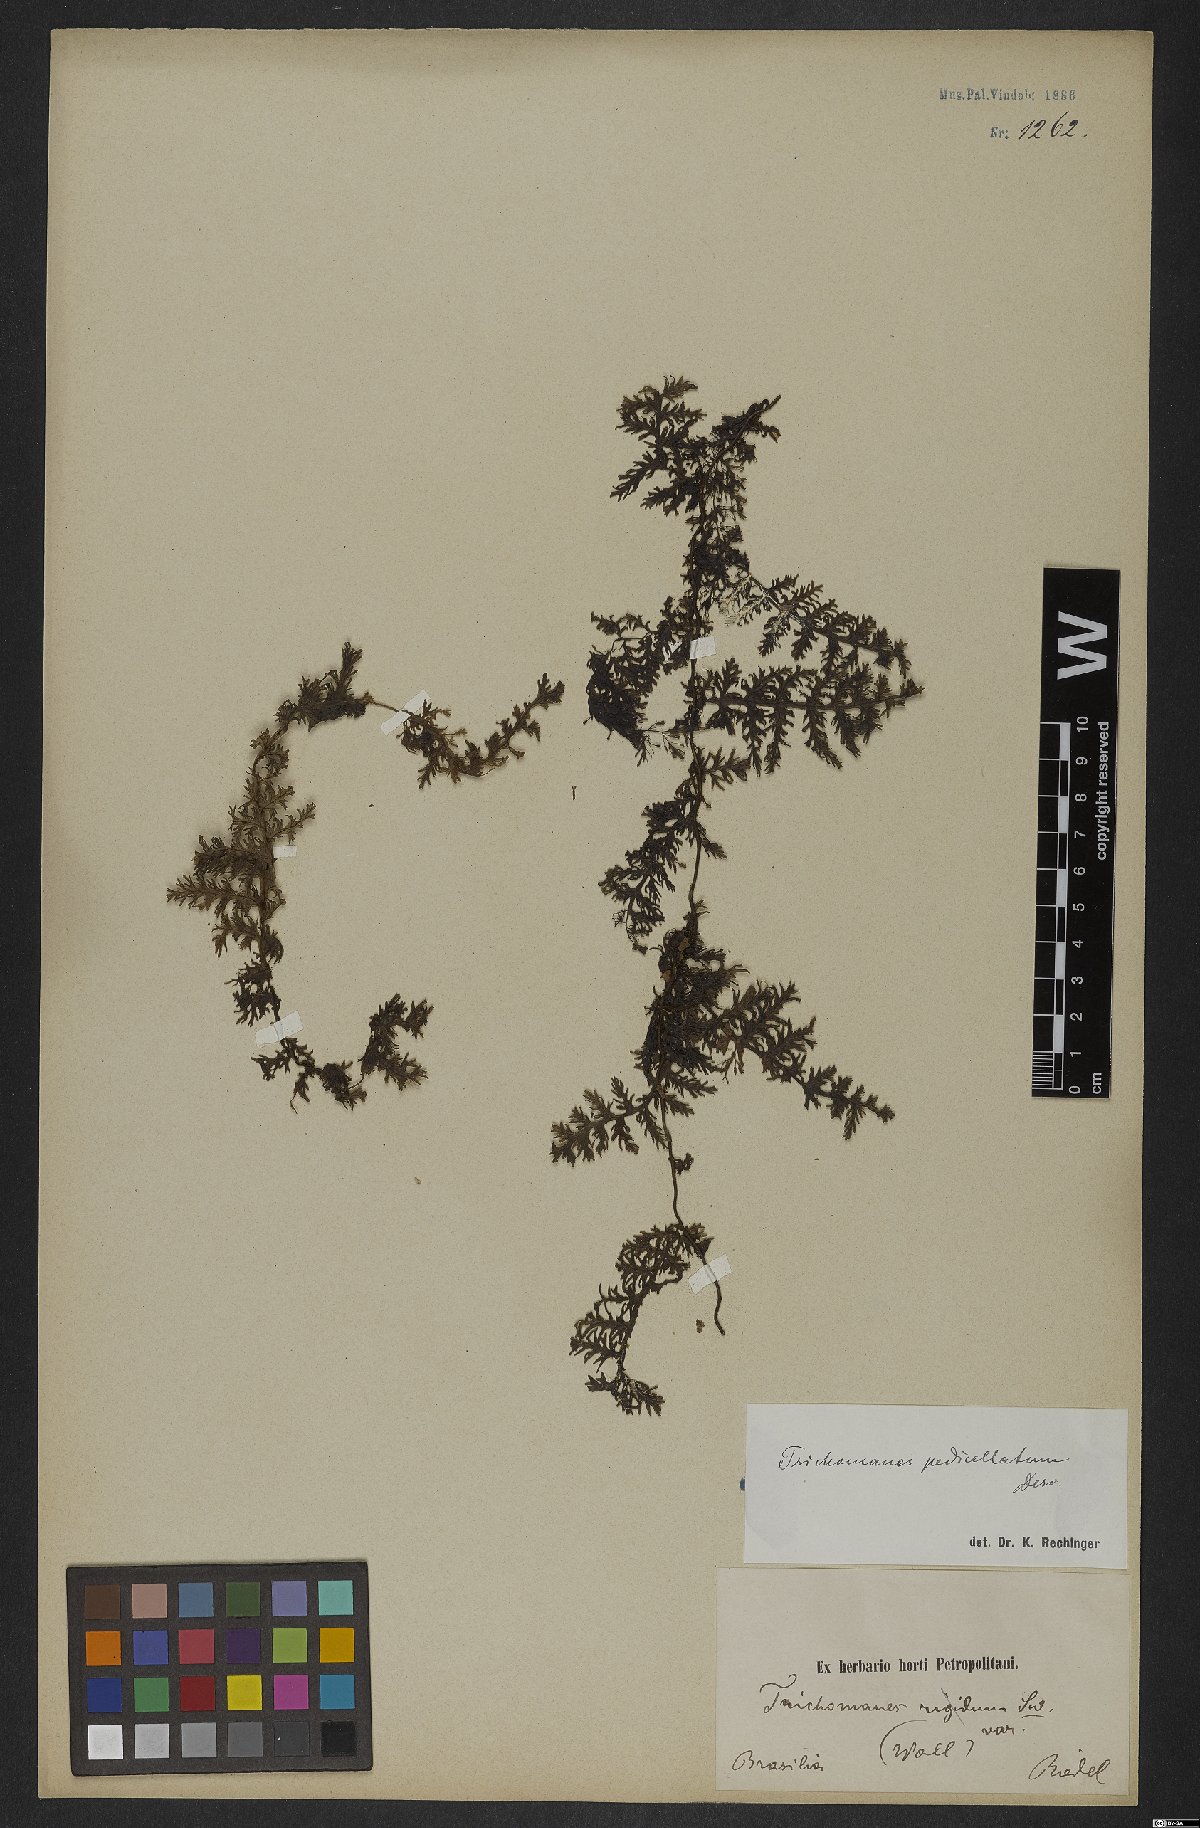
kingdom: Plantae
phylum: Tracheophyta
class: Polypodiopsida
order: Hymenophyllales
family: Hymenophyllaceae
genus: Trichomanes
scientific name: Trichomanes pedicellatum
